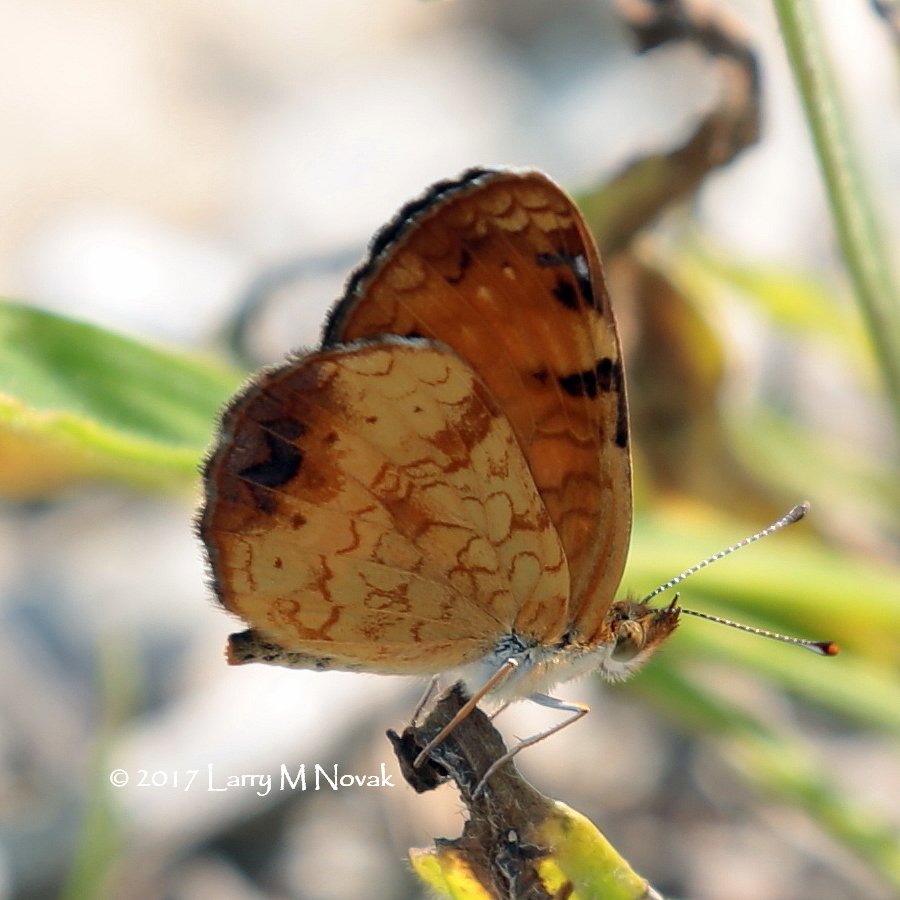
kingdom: Animalia
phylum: Arthropoda
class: Insecta
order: Lepidoptera
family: Nymphalidae
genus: Phyciodes
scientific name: Phyciodes tharos
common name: Northern Crescent
